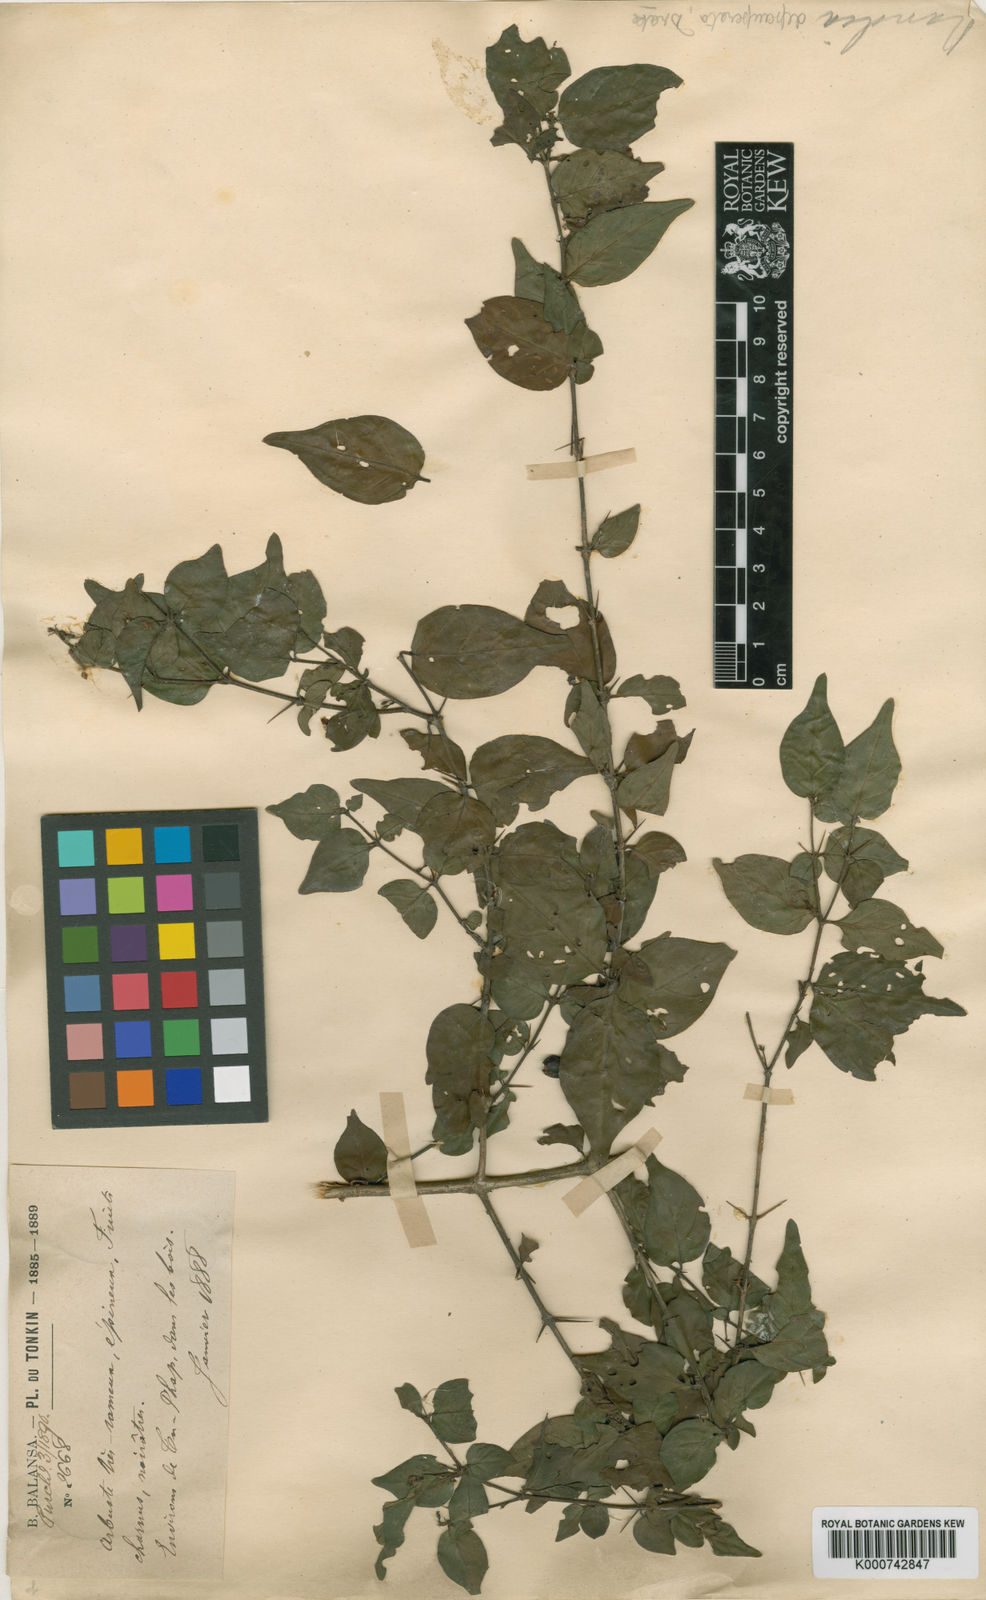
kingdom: Plantae
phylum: Tracheophyta
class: Magnoliopsida
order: Gentianales
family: Rubiaceae
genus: Benkara
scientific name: Benkara depauperata
